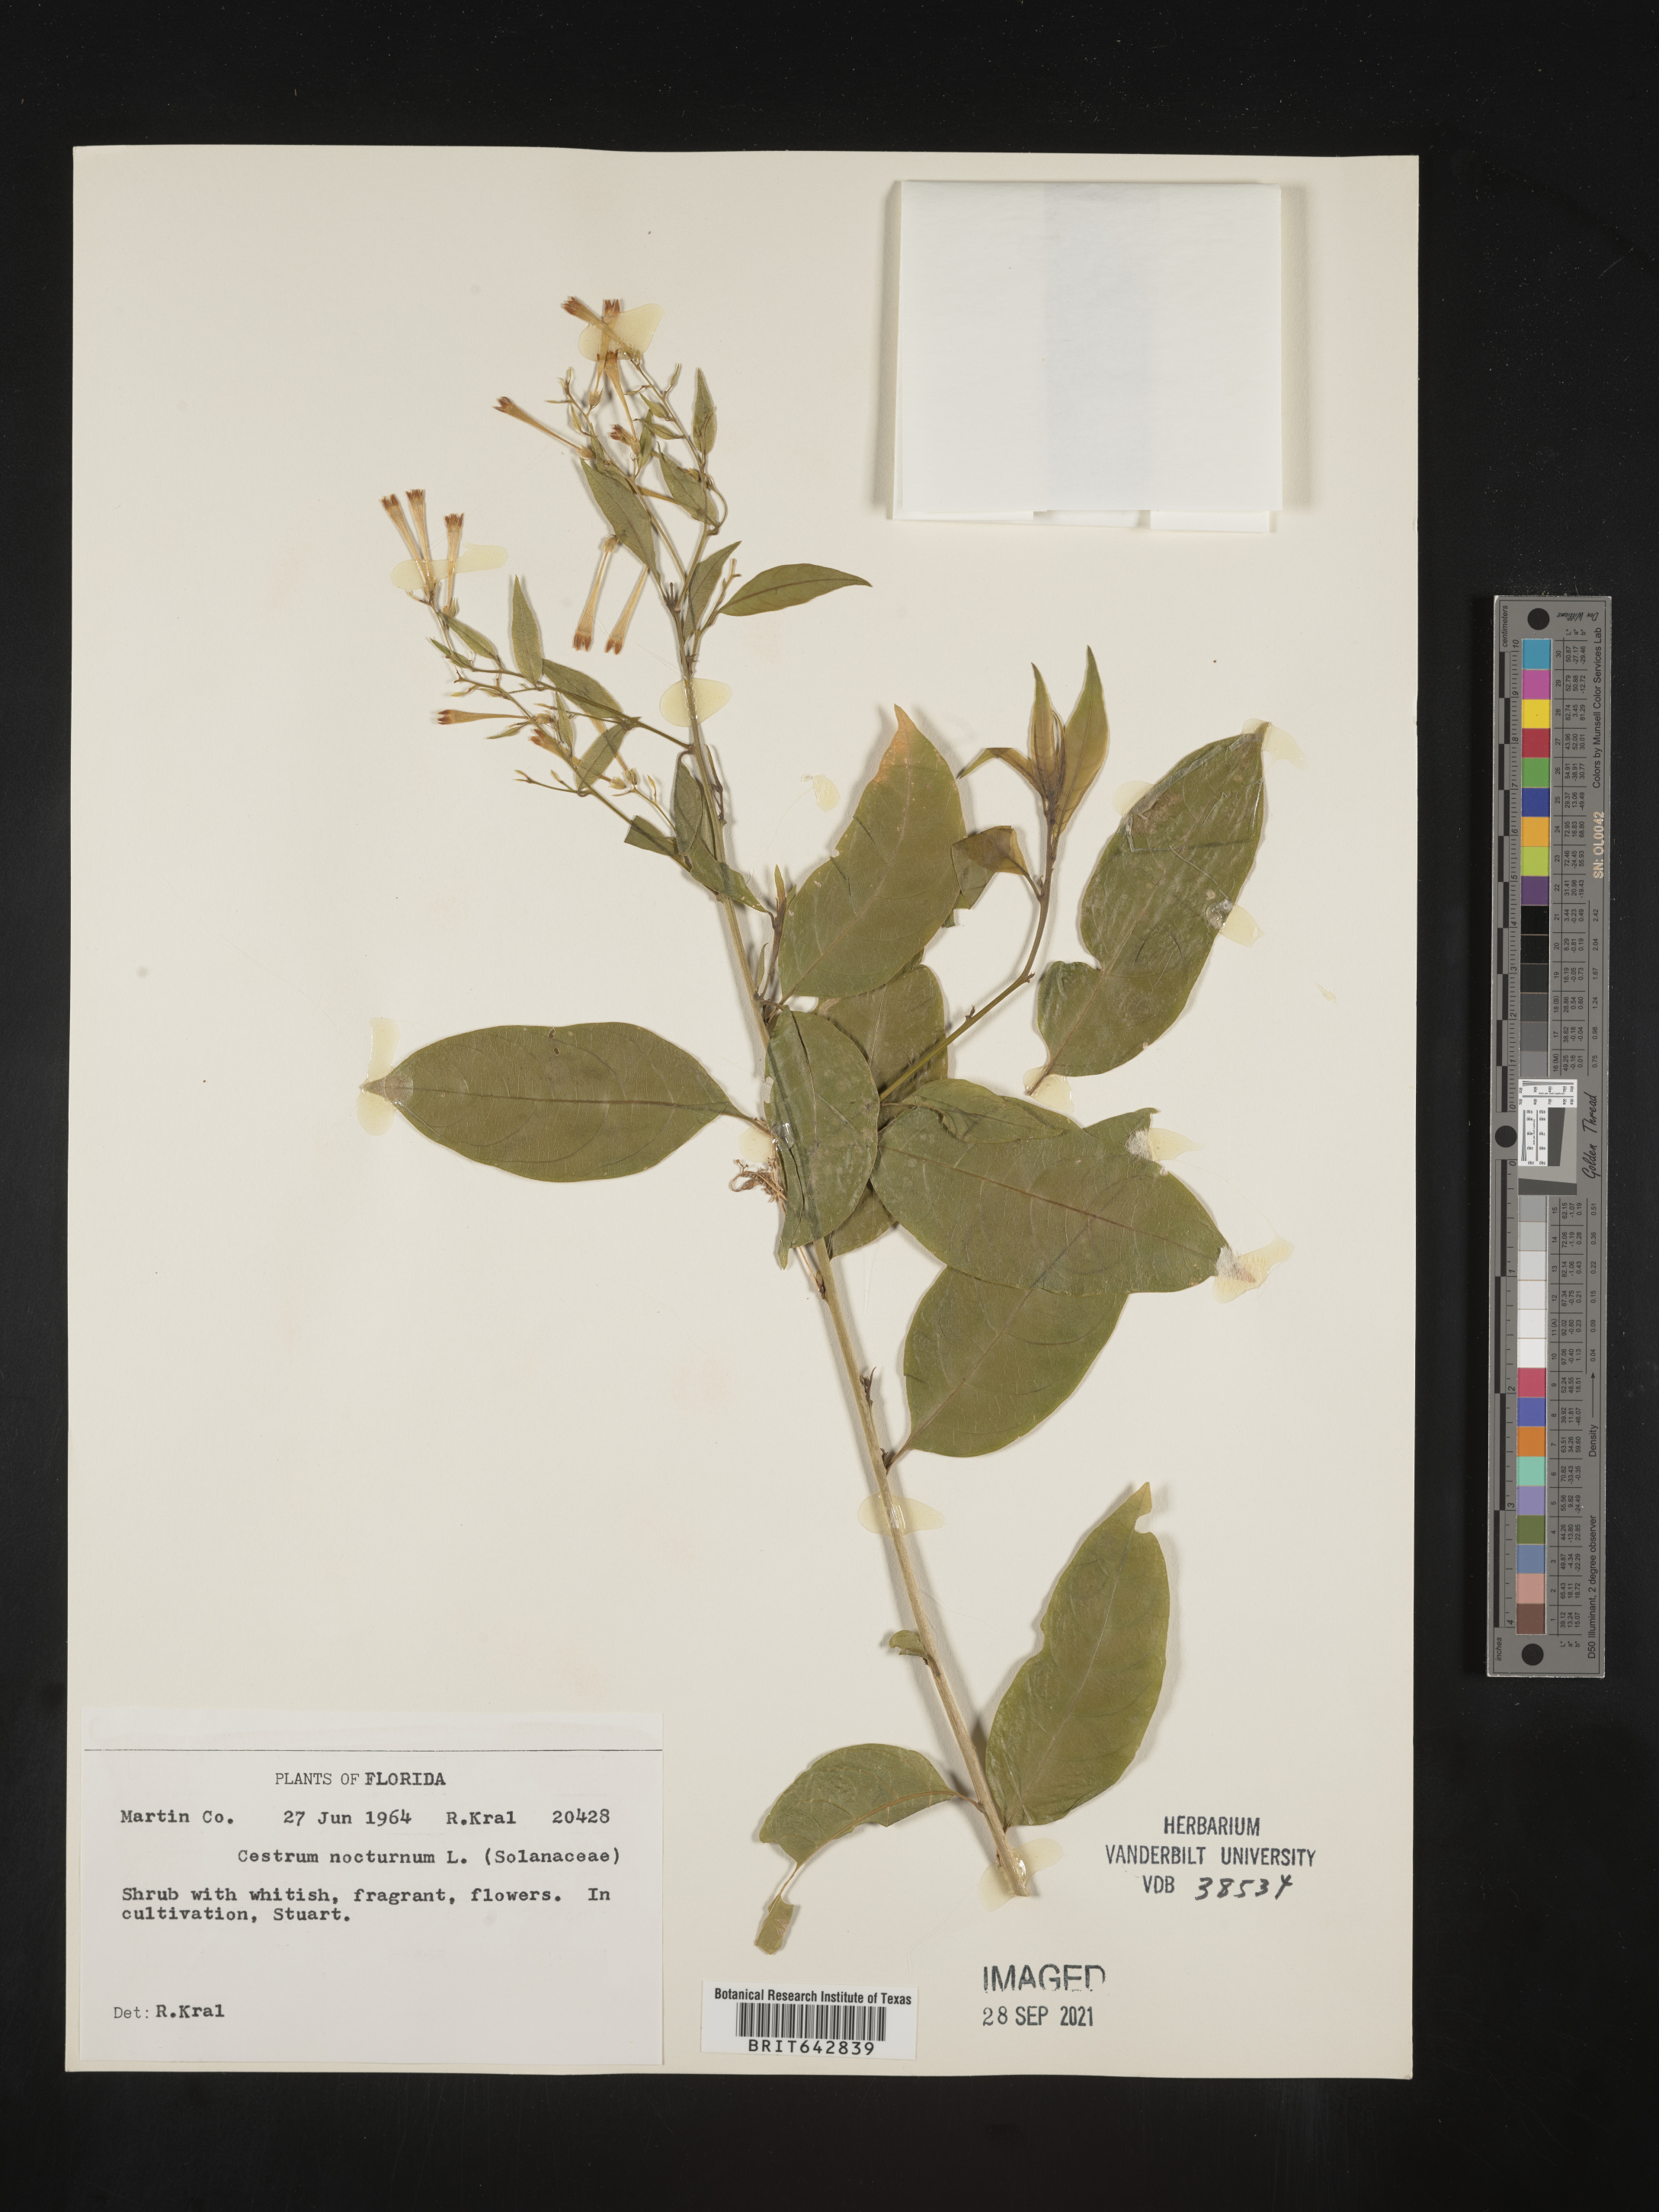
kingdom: Plantae
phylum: Tracheophyta
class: Magnoliopsida
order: Solanales
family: Solanaceae
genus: Cestrum
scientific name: Cestrum
